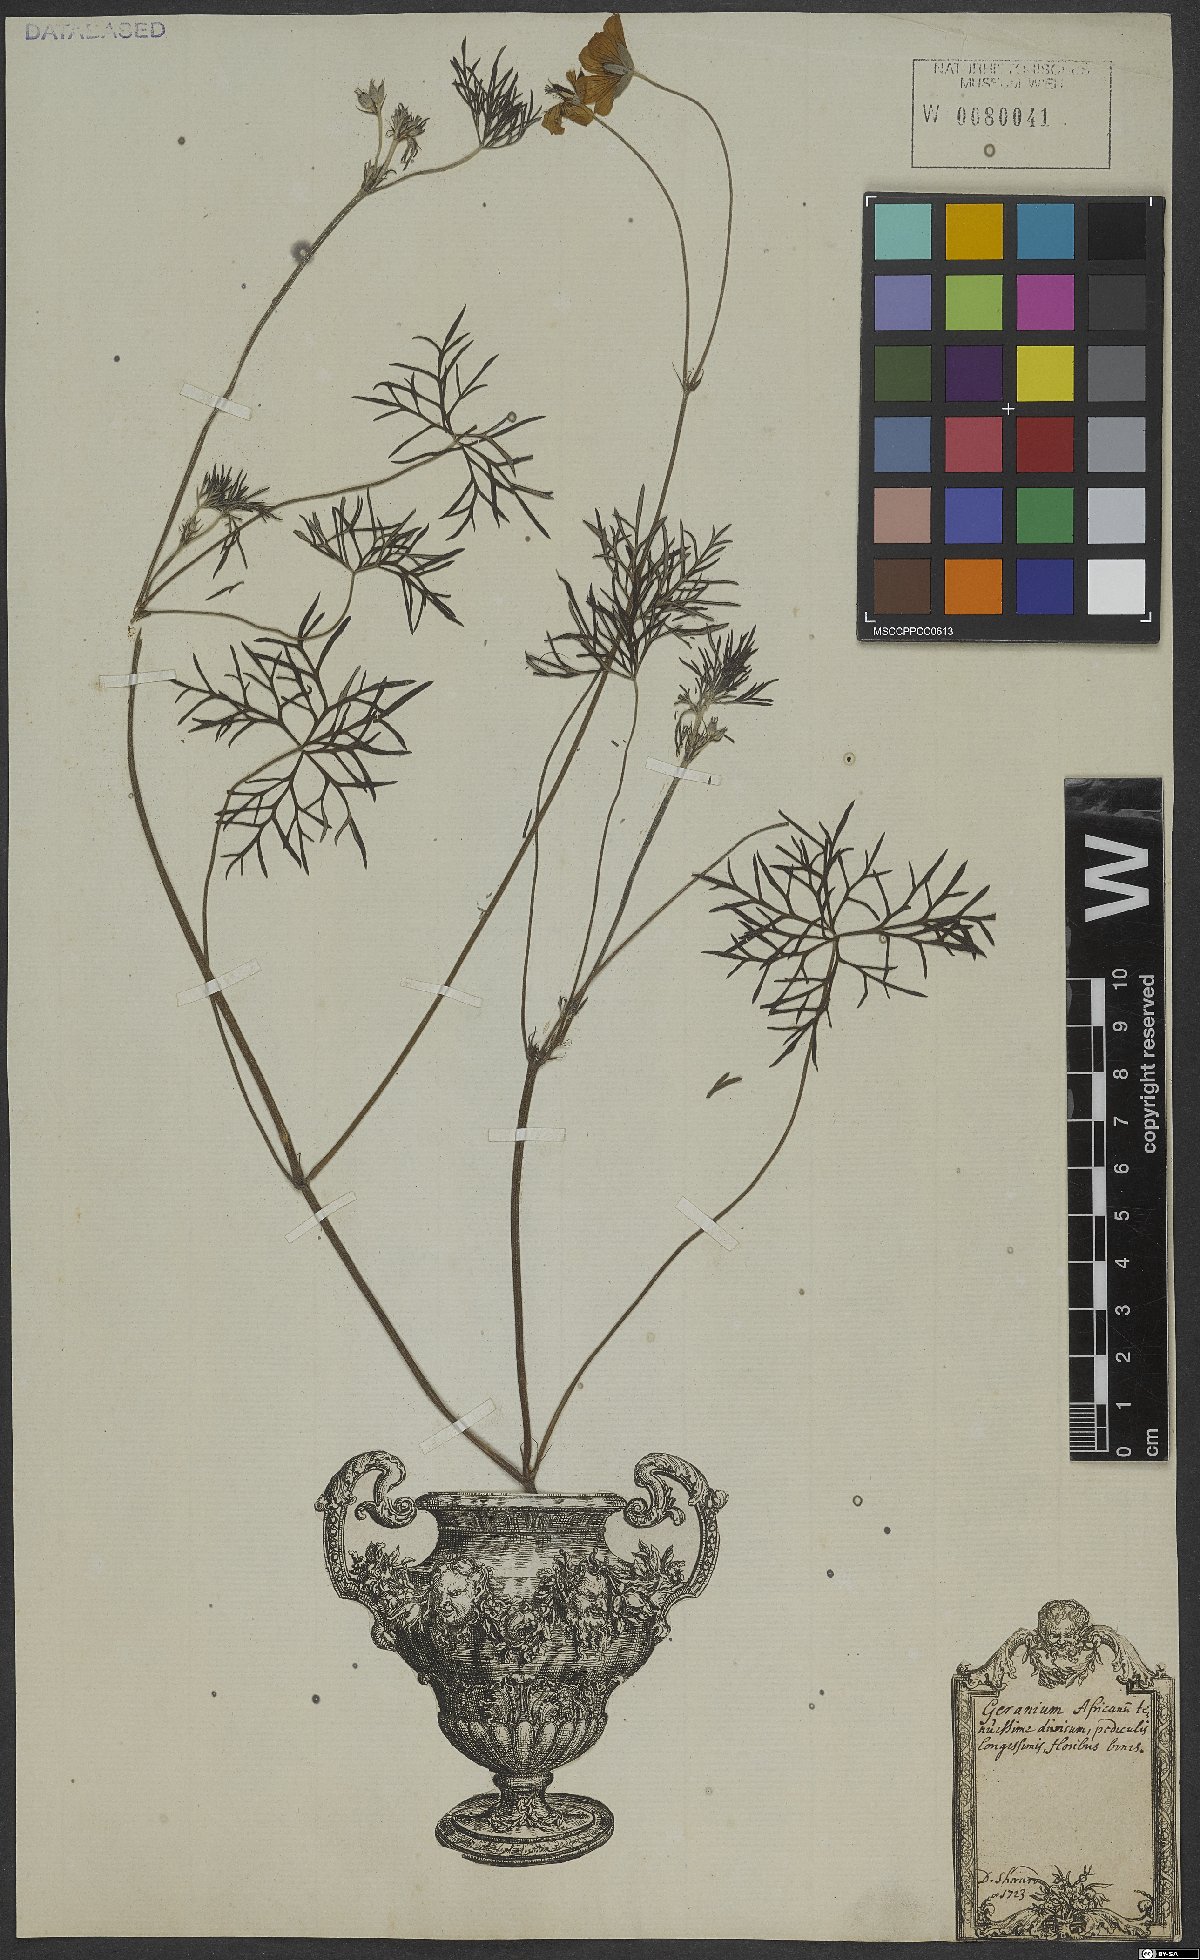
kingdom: Plantae
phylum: Tracheophyta
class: Magnoliopsida
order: Geraniales
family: Geraniaceae
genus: Geranium
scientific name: Geranium incanum
